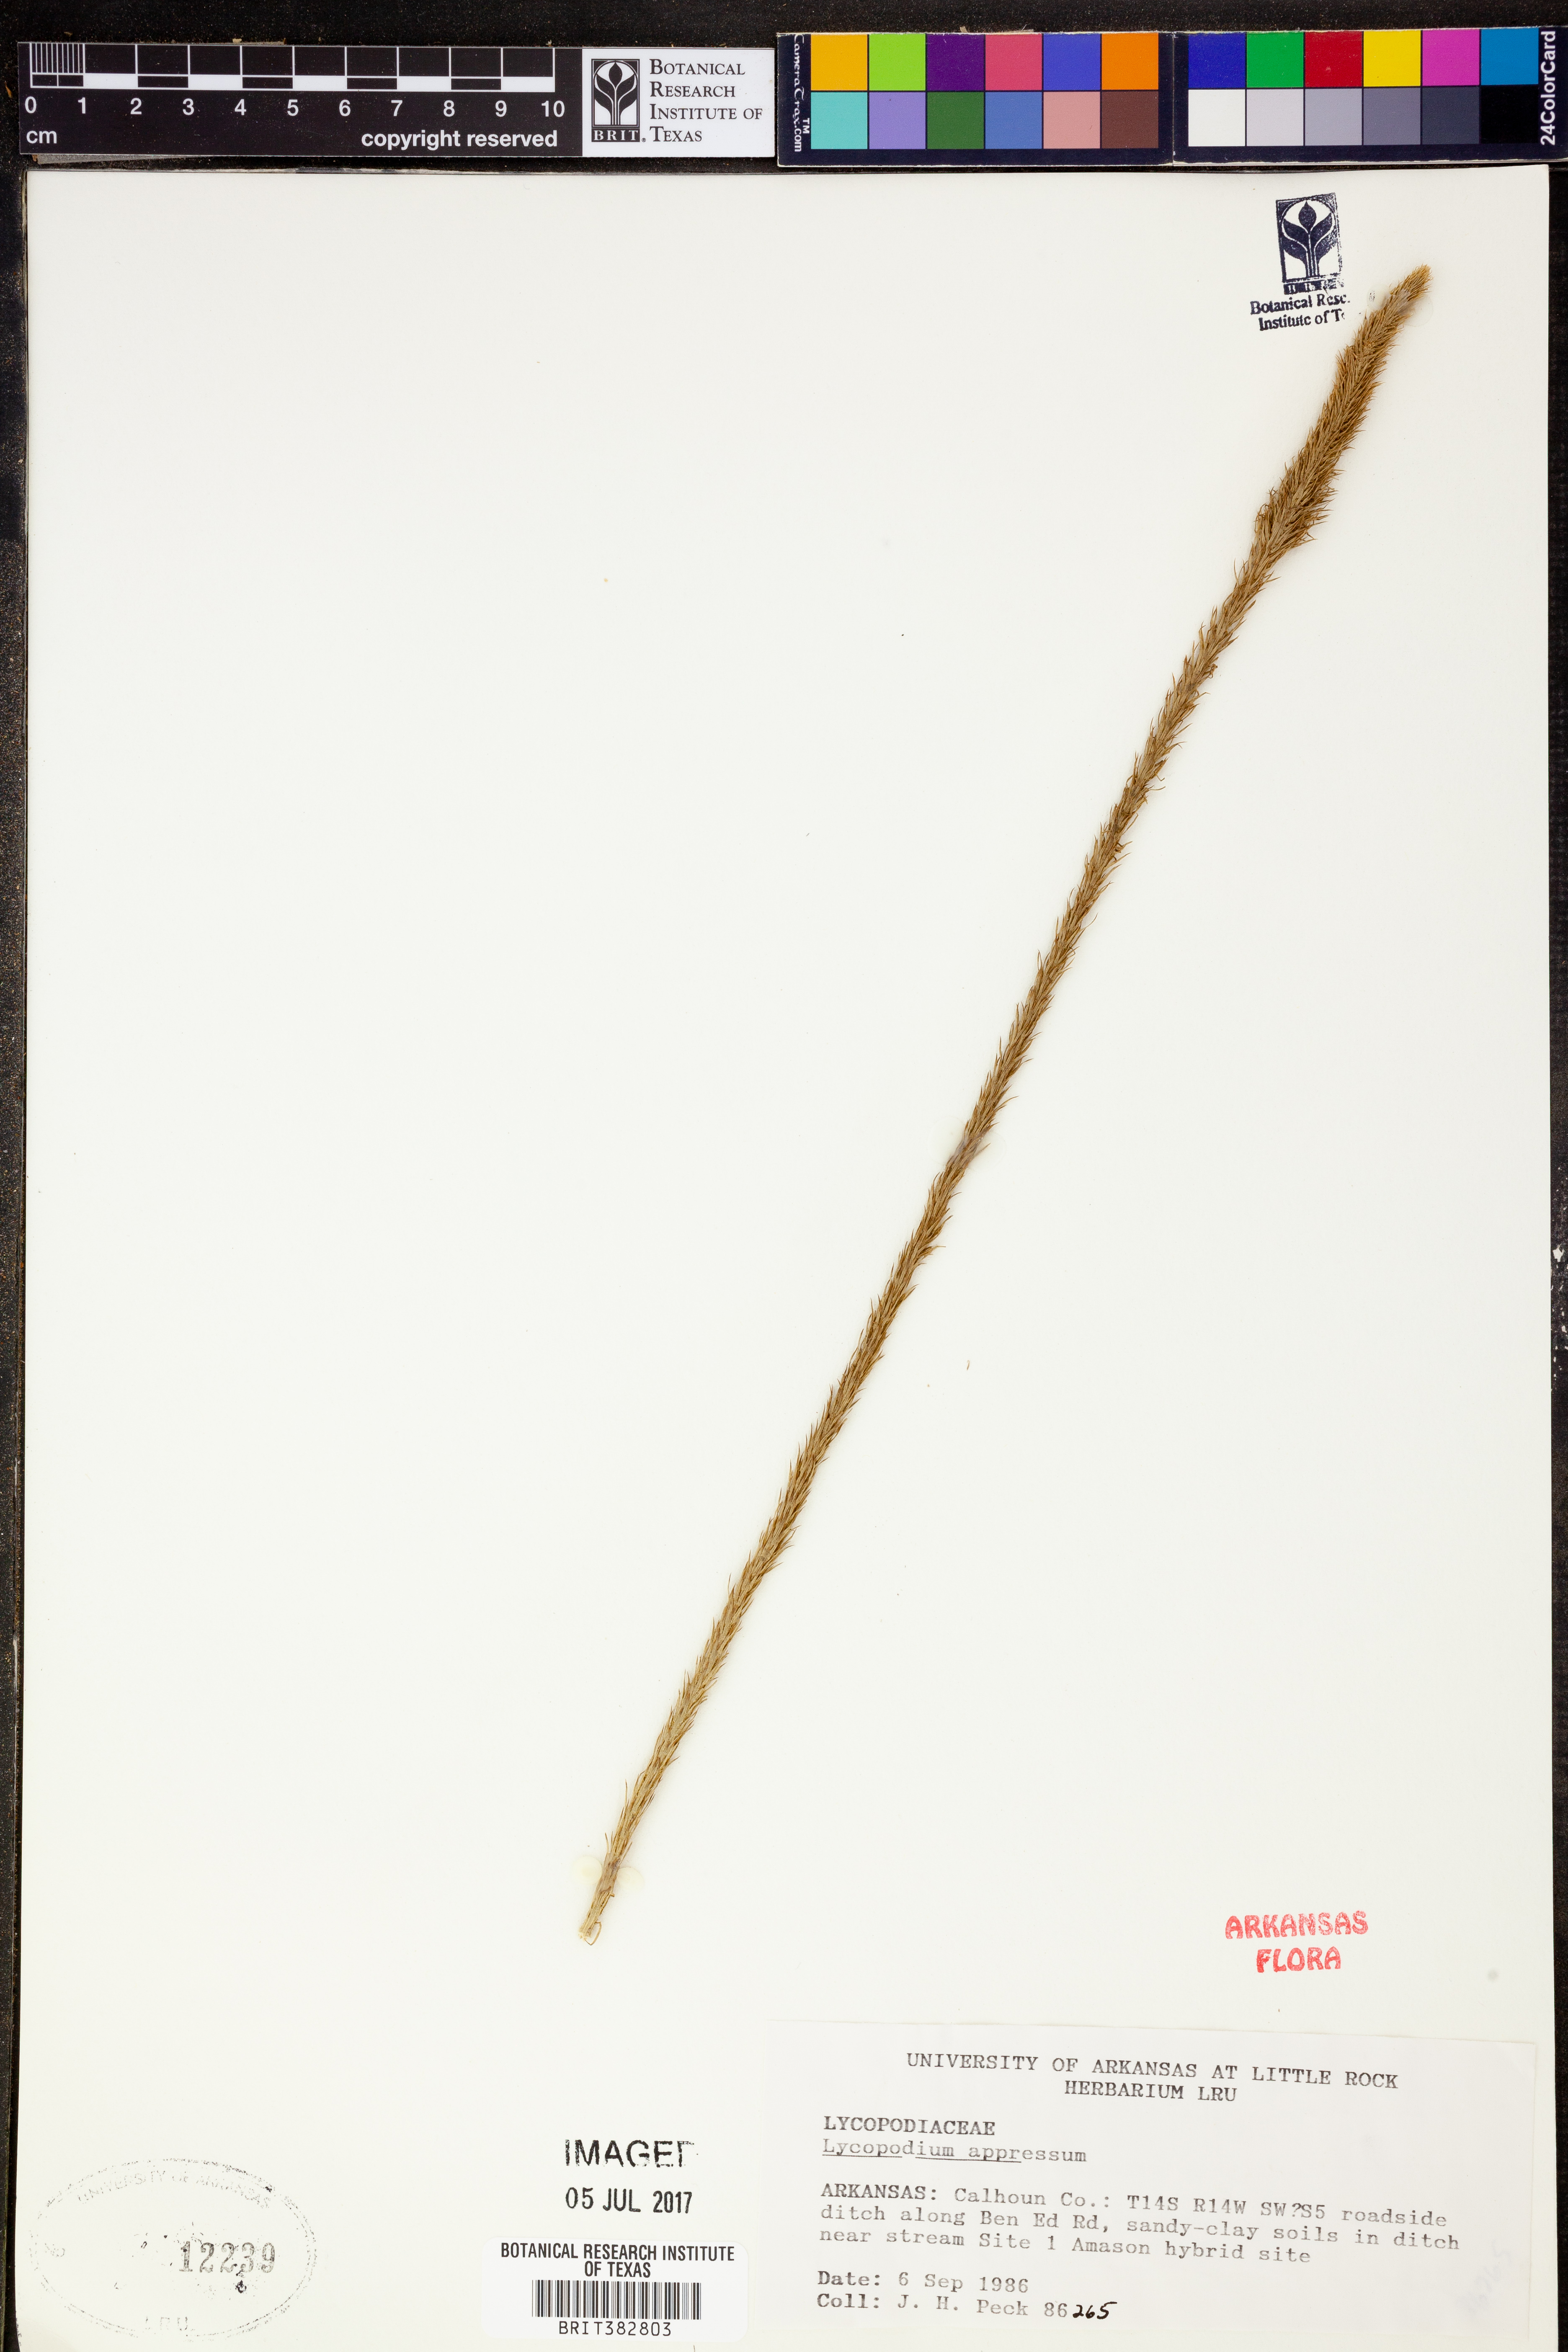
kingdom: Plantae
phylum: Tracheophyta
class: Lycopodiopsida
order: Lycopodiales
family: Lycopodiaceae
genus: Lycopodiella
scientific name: Lycopodiella appressa
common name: Appressed bog clubmoss
